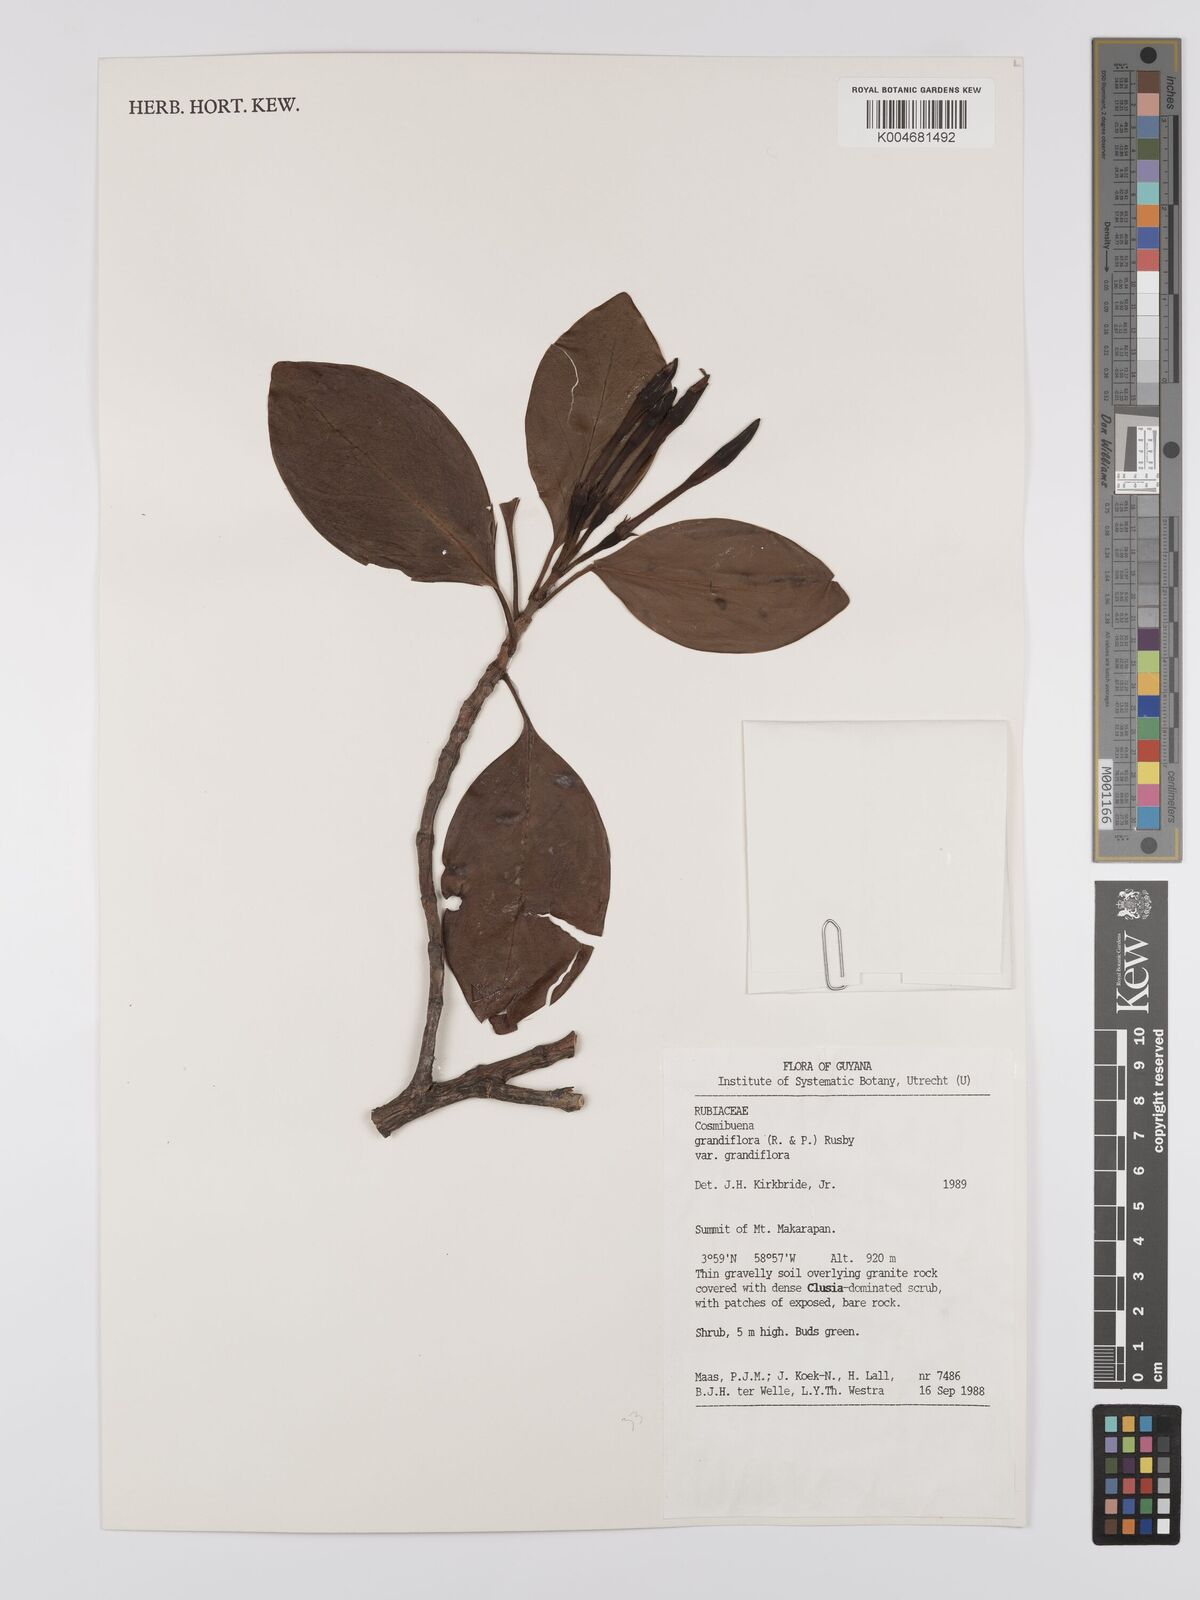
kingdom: Plantae
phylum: Tracheophyta
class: Magnoliopsida
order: Gentianales
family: Rubiaceae
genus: Cosmibuena
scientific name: Cosmibuena grandiflora
